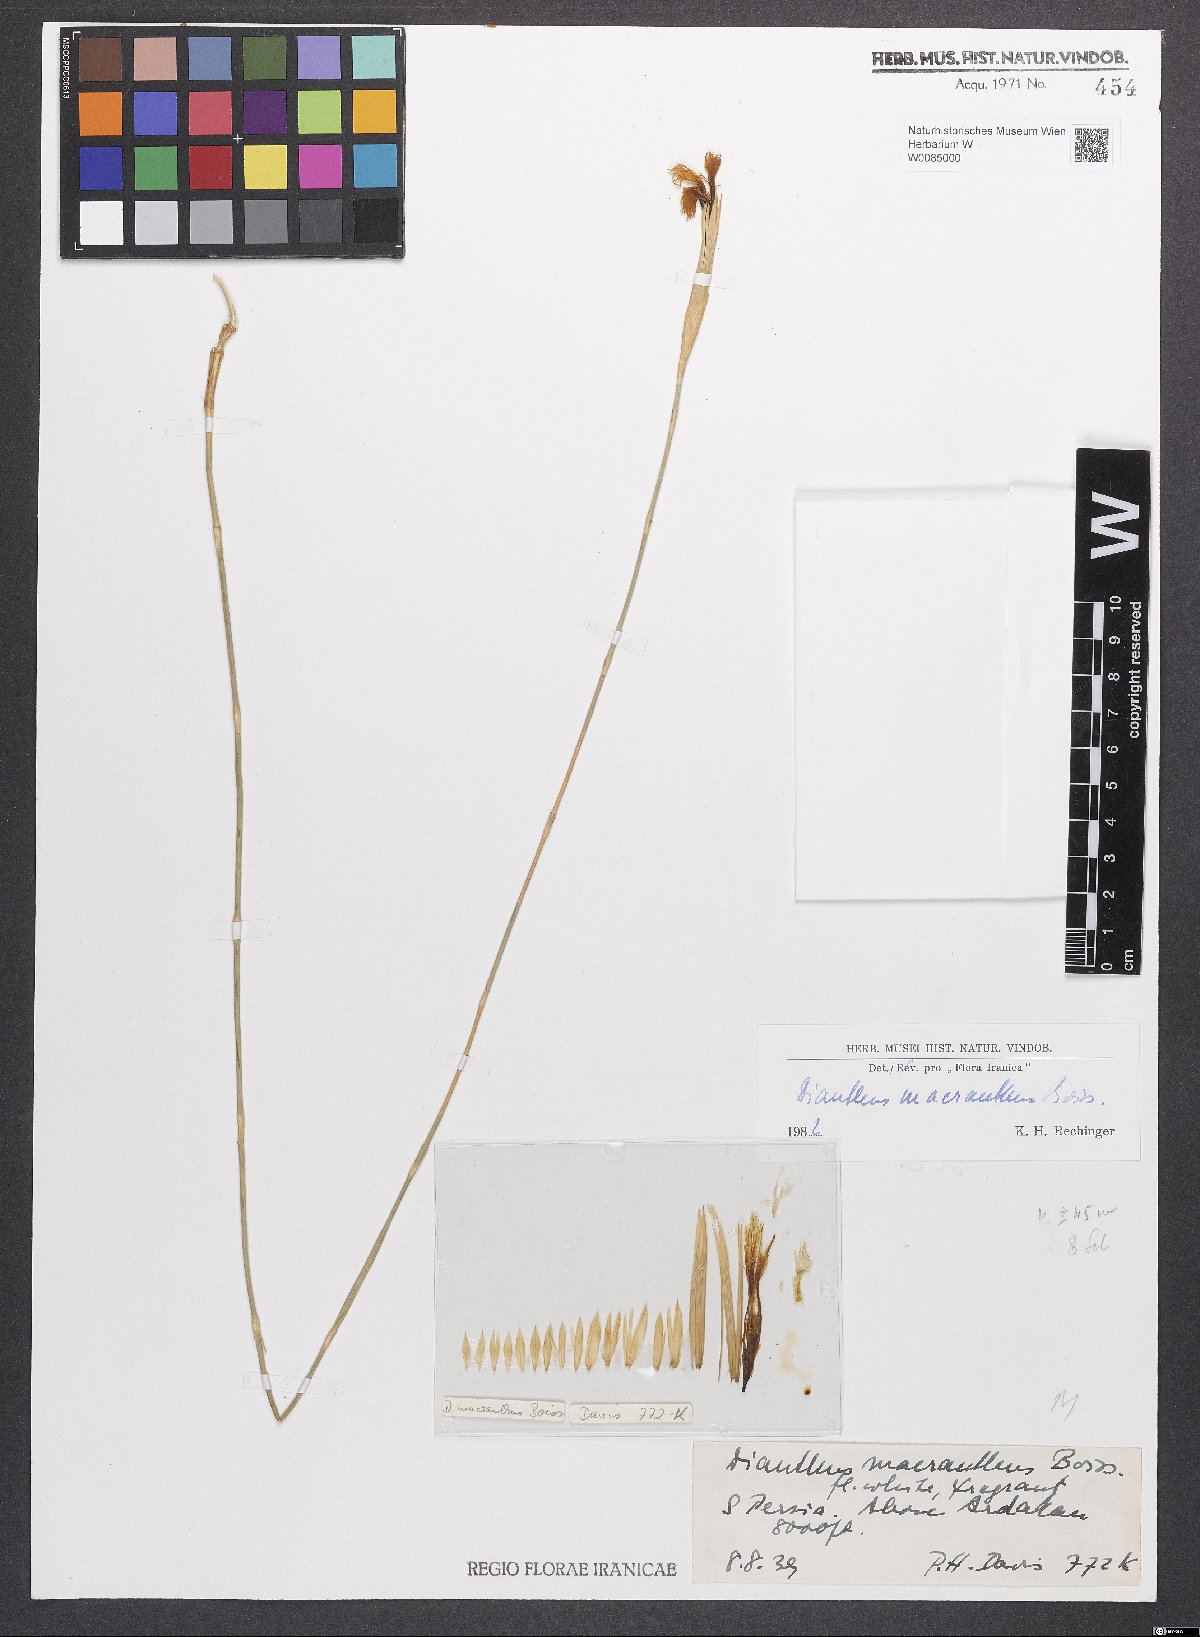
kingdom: Plantae
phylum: Tracheophyta
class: Magnoliopsida
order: Caryophyllales
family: Caryophyllaceae
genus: Dianthus
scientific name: Dianthus macranthus
